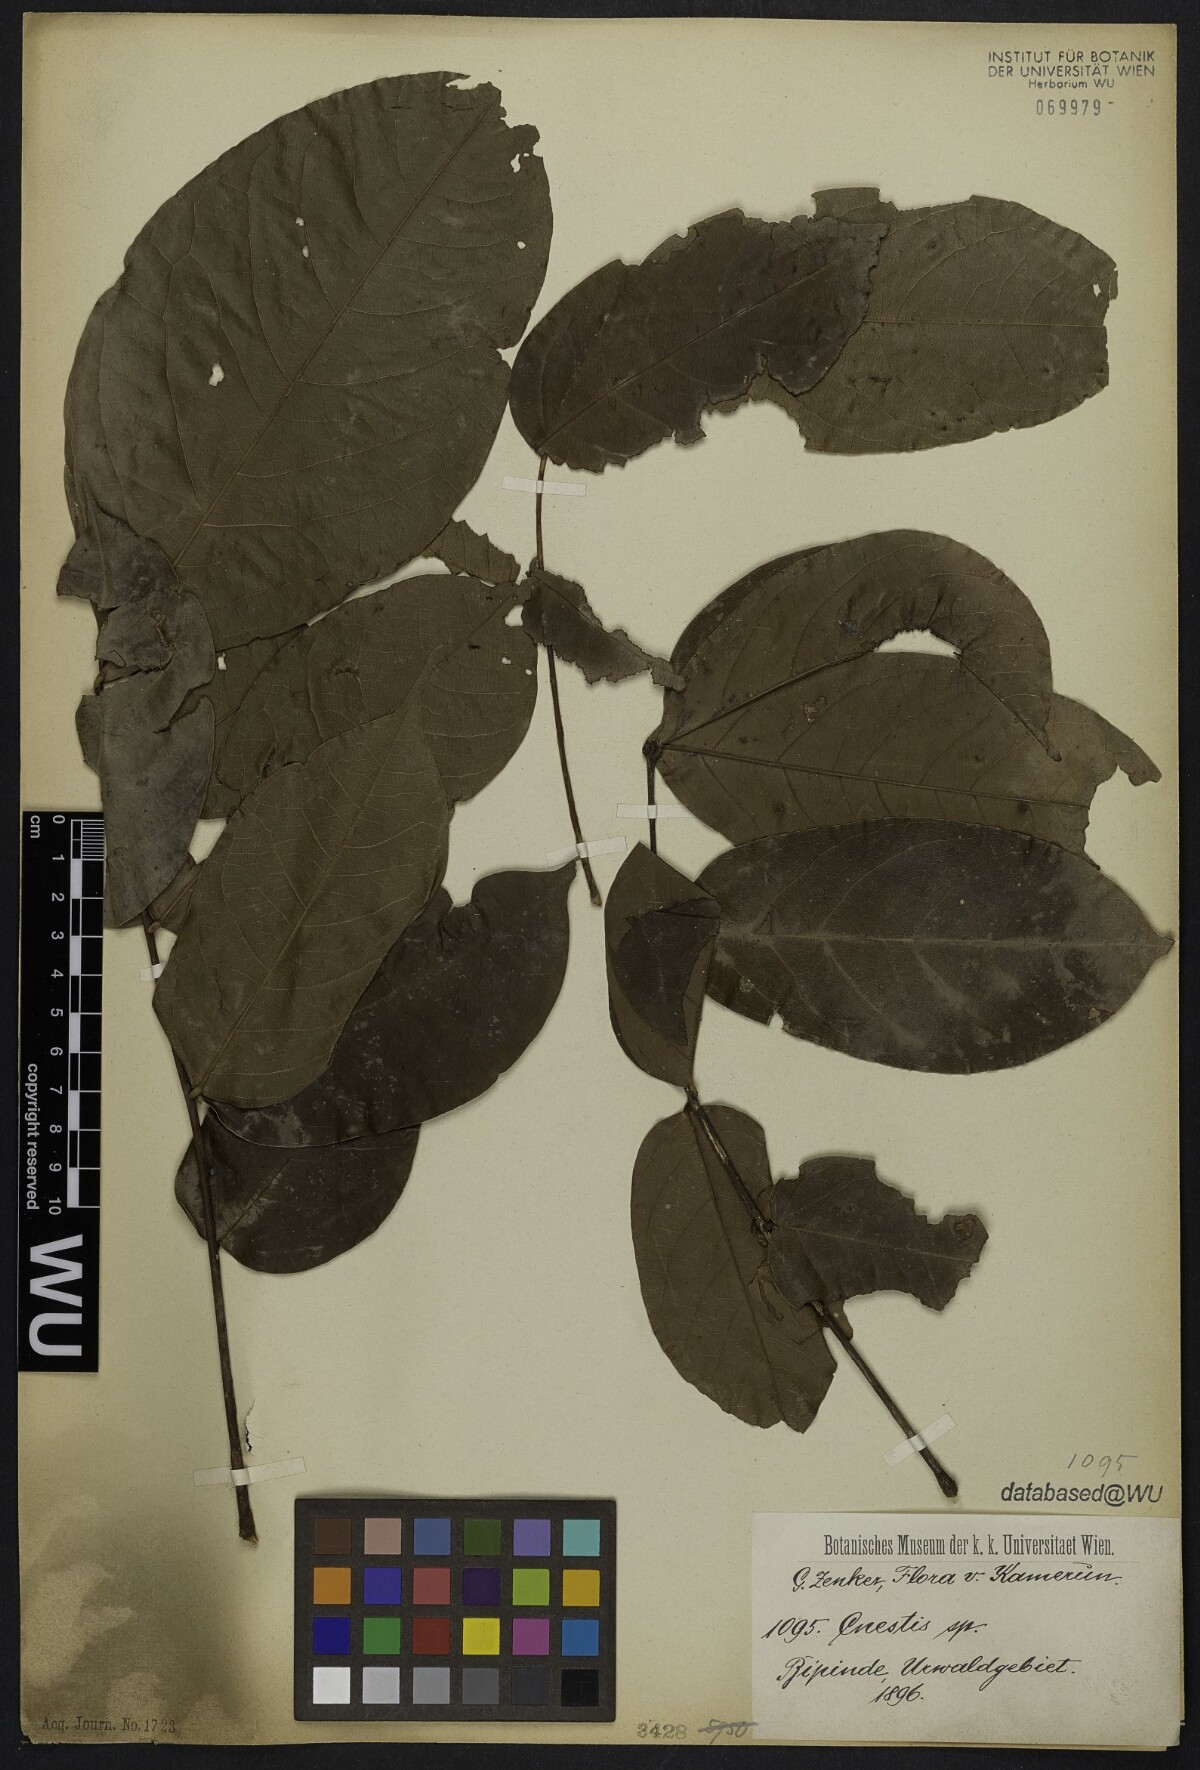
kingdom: Plantae
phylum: Tracheophyta
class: Magnoliopsida
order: Oxalidales
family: Connaraceae
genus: Cnestis
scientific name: Cnestis macrophylla
